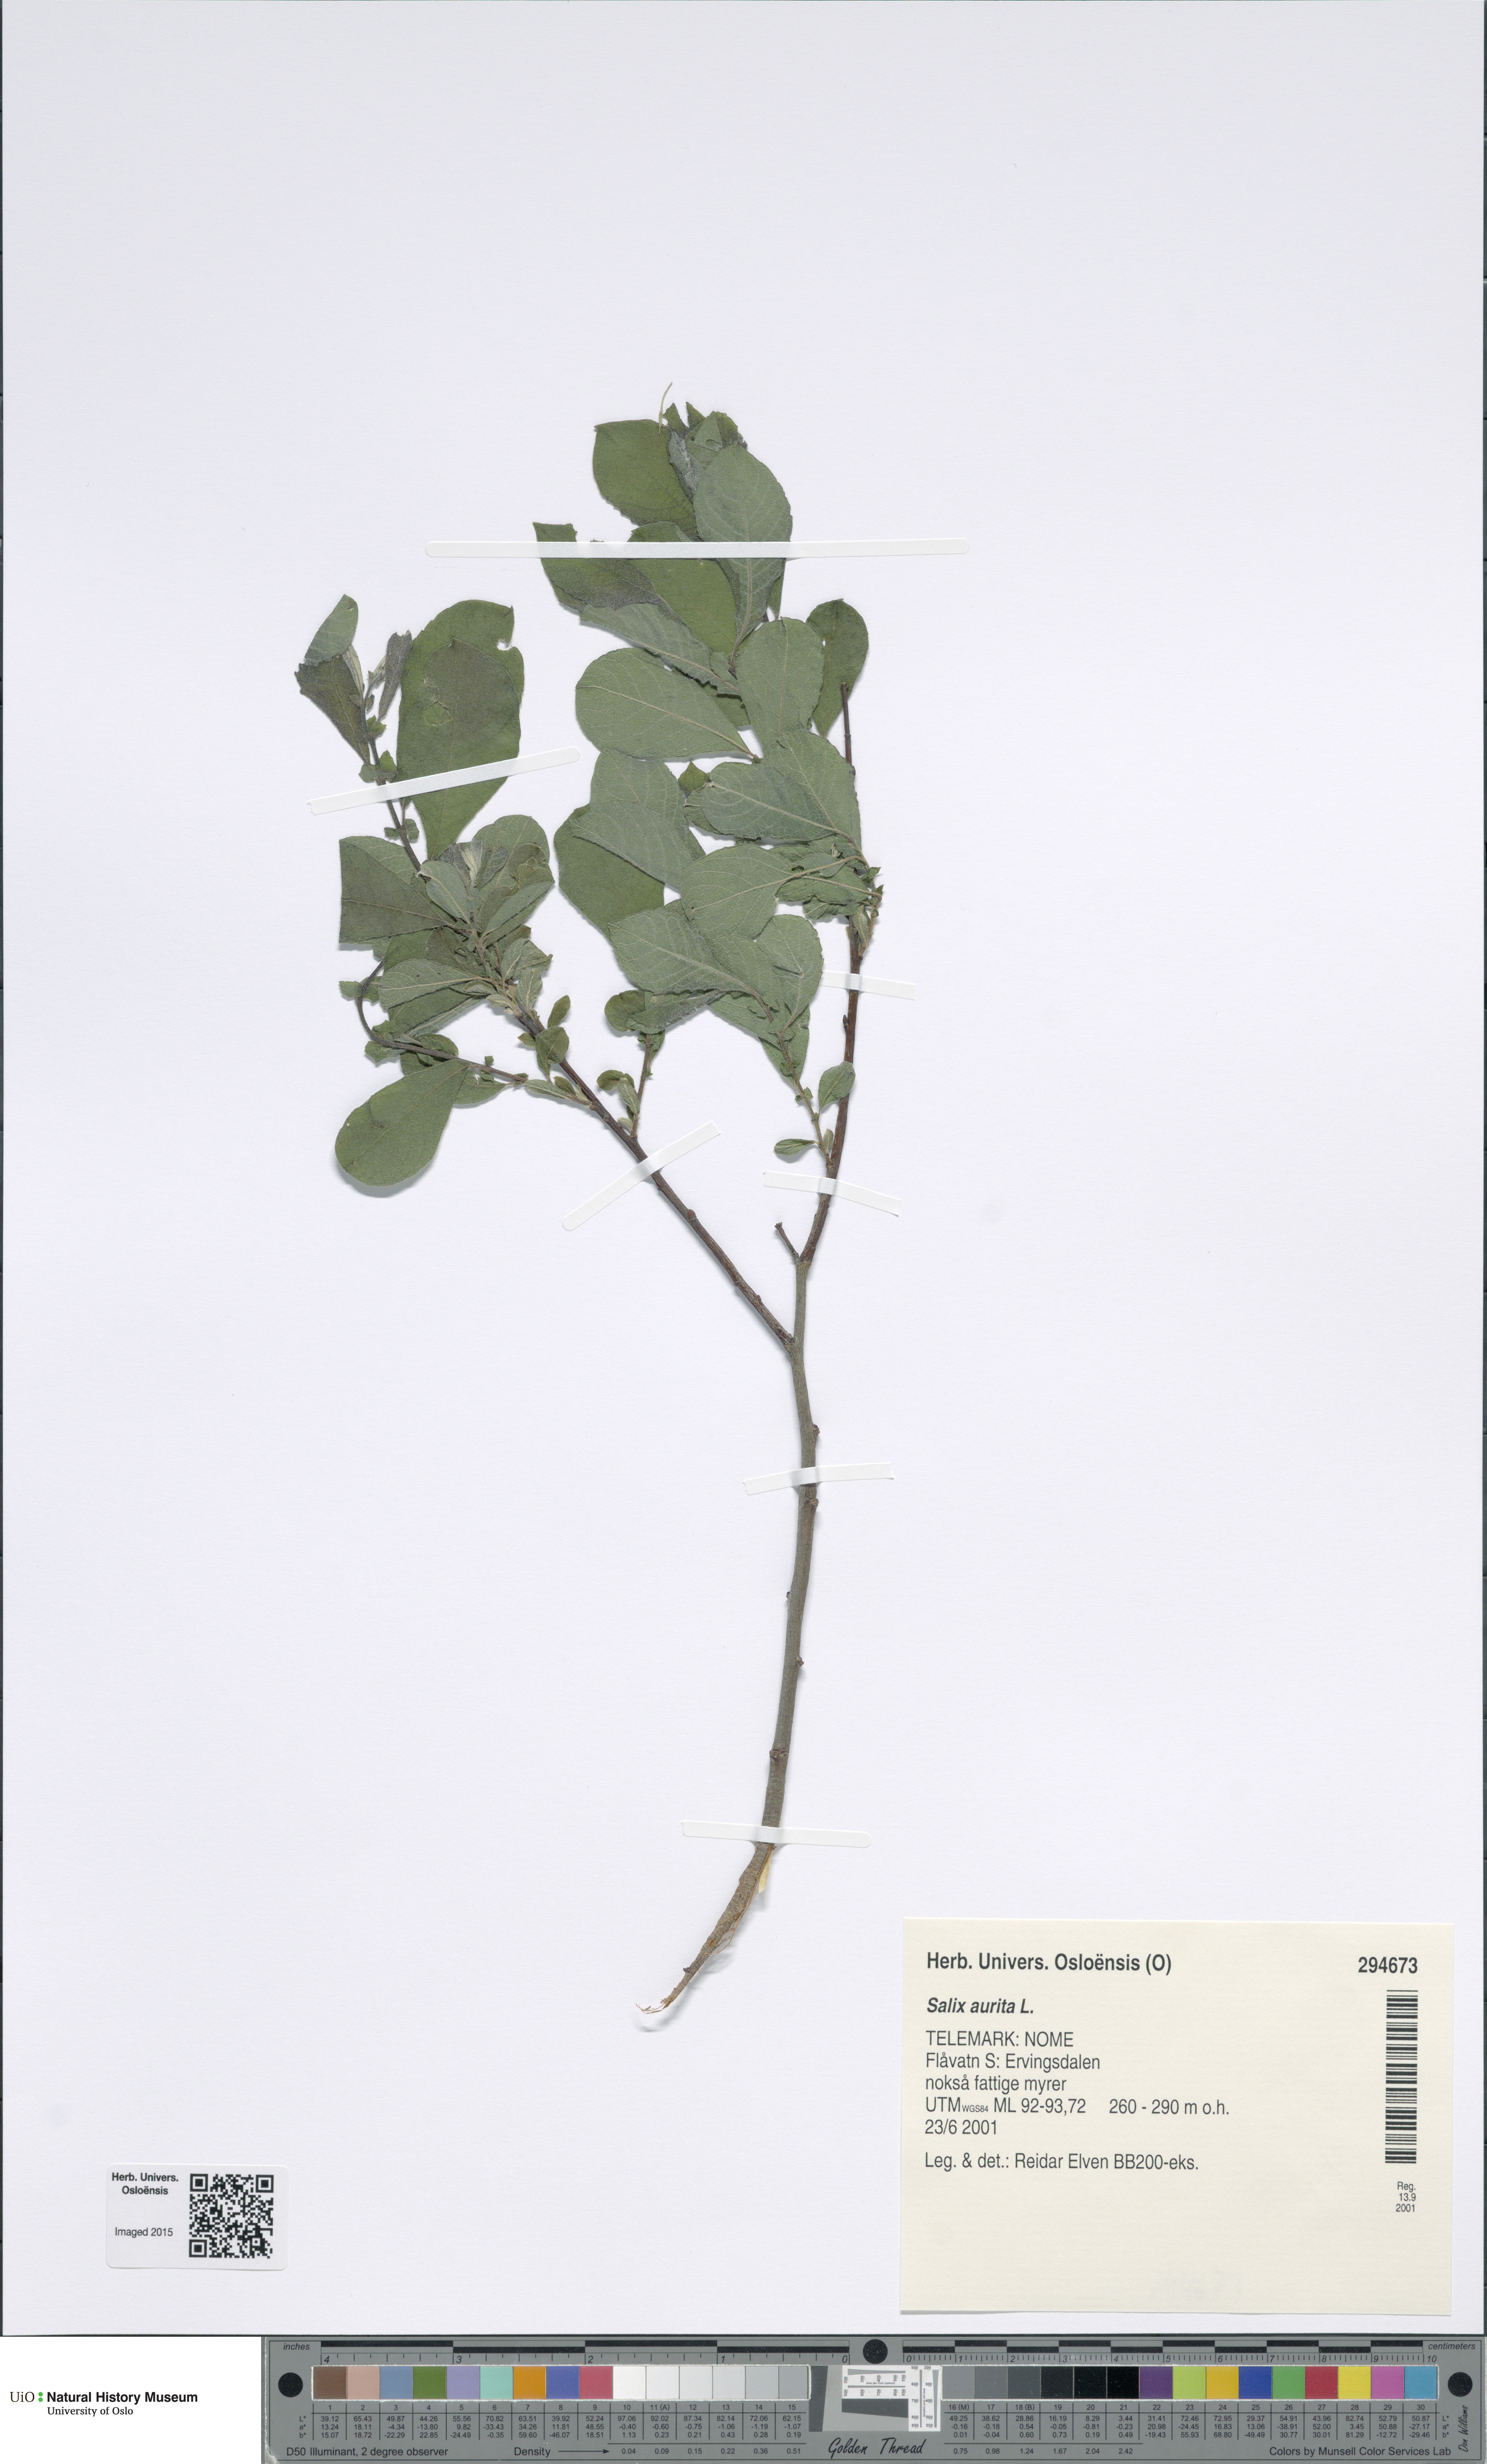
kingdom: Plantae
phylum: Tracheophyta
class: Magnoliopsida
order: Malpighiales
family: Salicaceae
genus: Salix
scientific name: Salix aurita
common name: Eared willow
